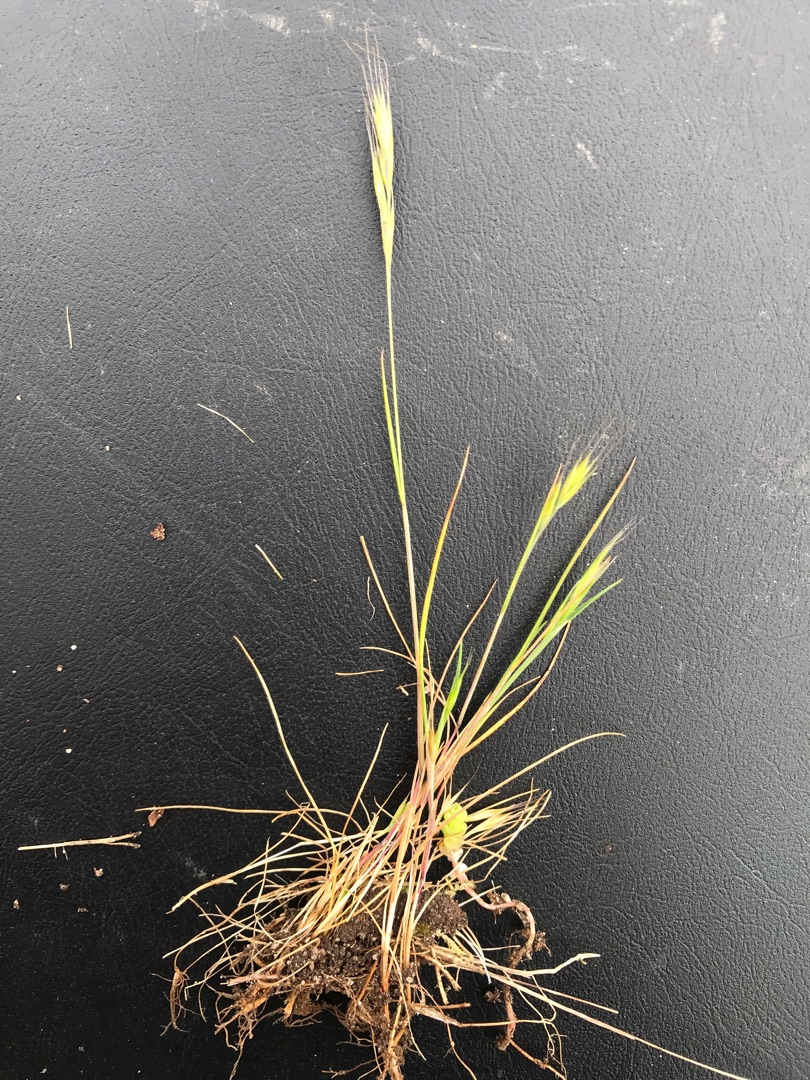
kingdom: Plantae
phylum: Tracheophyta
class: Liliopsida
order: Poales
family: Poaceae
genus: Festuca
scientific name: Festuca bromoides
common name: Langstakket væselhale
